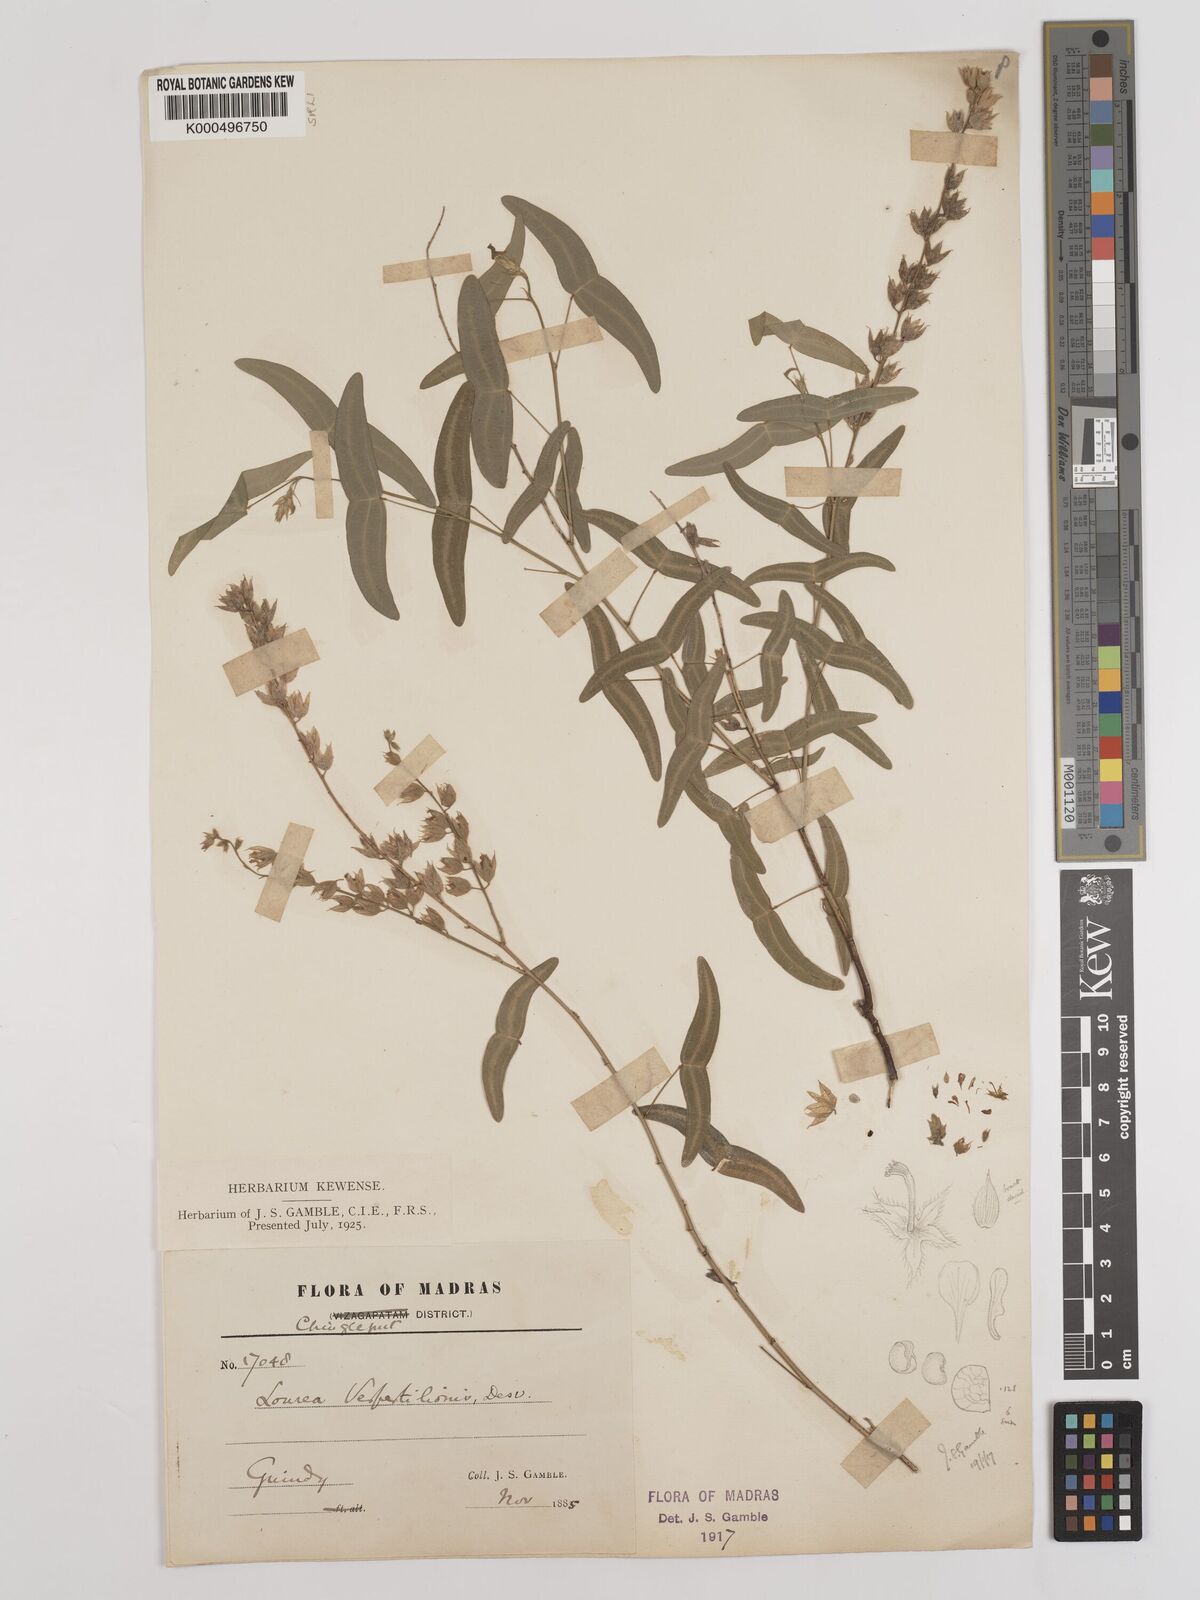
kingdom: Plantae
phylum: Tracheophyta
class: Magnoliopsida
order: Fabales
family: Fabaceae
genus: Christia
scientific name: Christia vespertilionis
